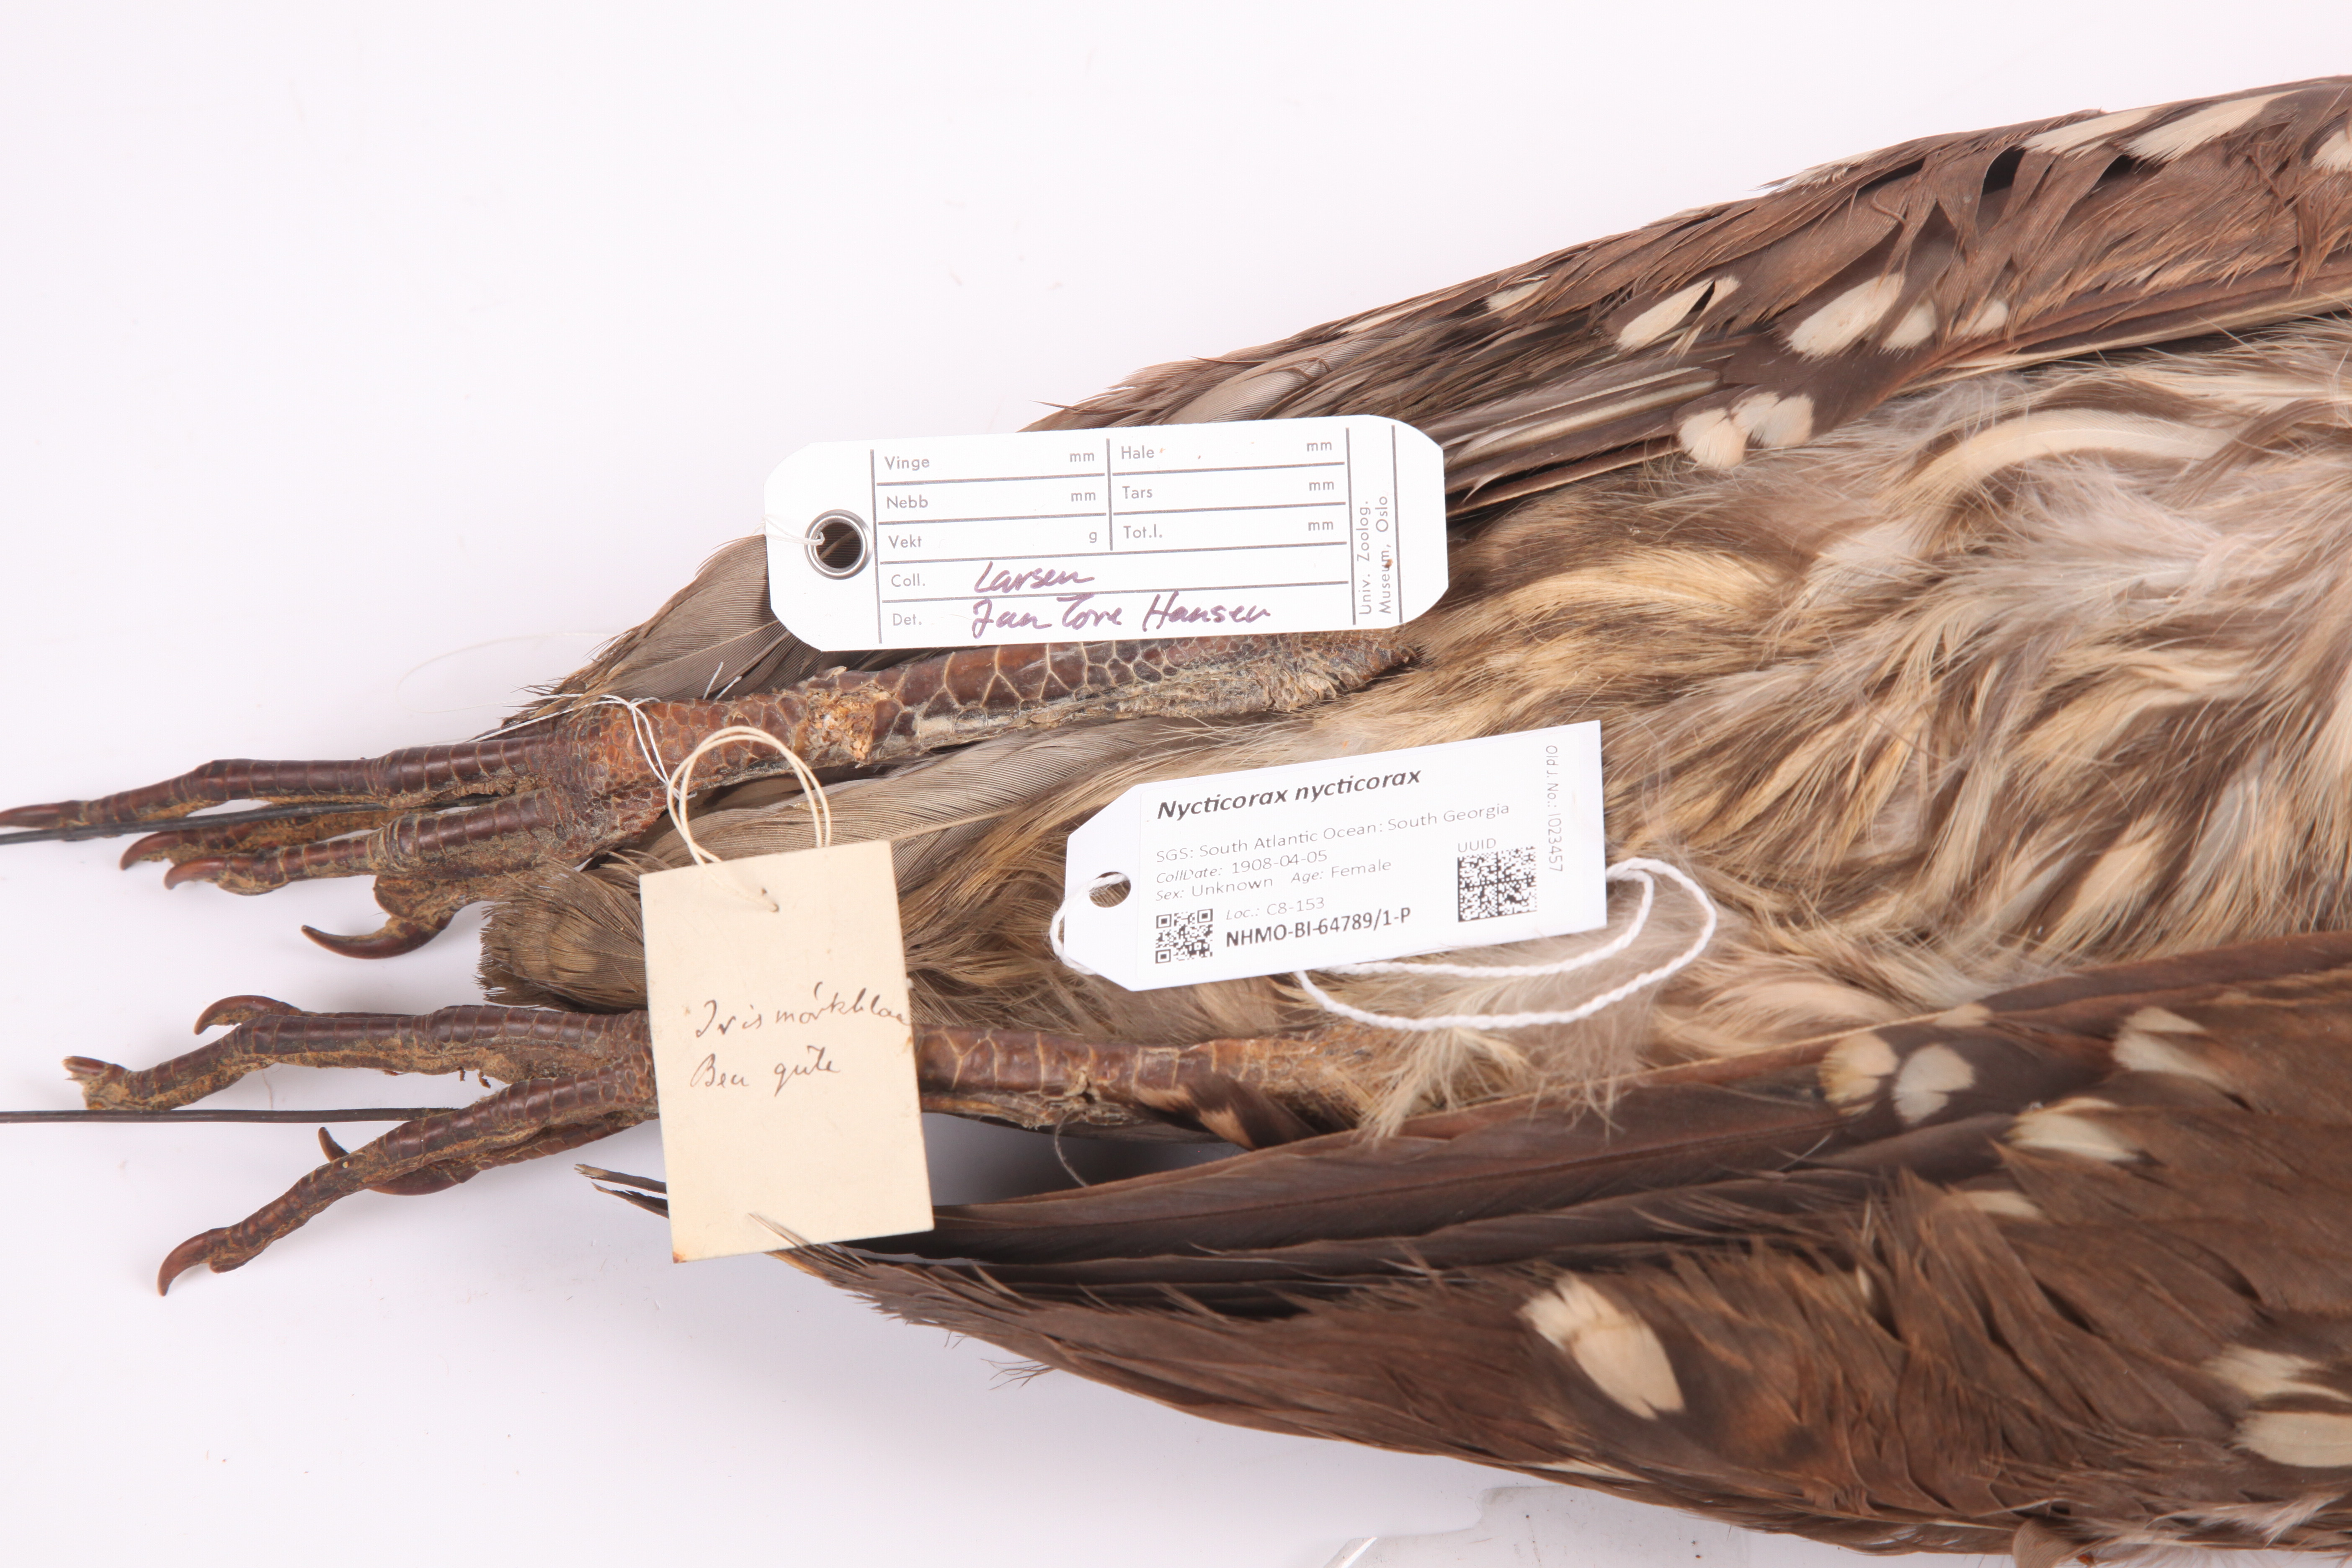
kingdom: Animalia
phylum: Chordata
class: Aves
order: Pelecaniformes
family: Ardeidae
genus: Nycticorax
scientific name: Nycticorax nycticorax
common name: Black-crowned night heron
